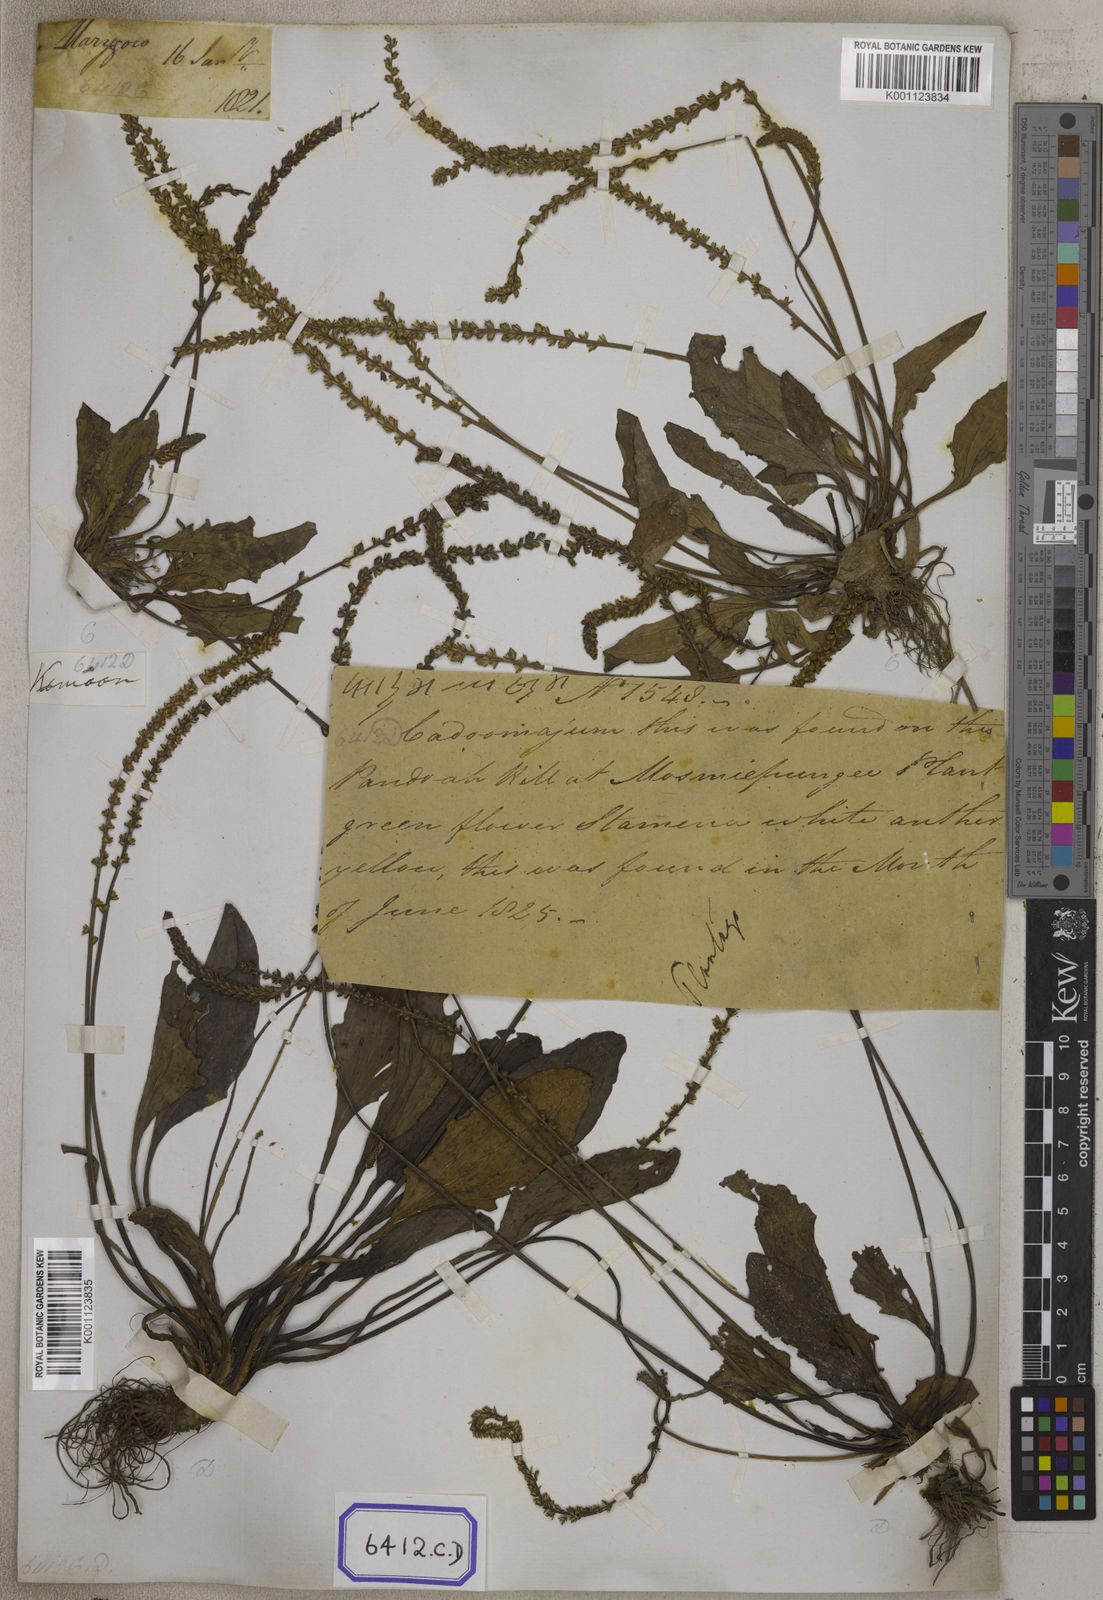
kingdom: Plantae
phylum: Tracheophyta
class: Magnoliopsida
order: Lamiales
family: Plantaginaceae
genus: Plantago
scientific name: Plantago
